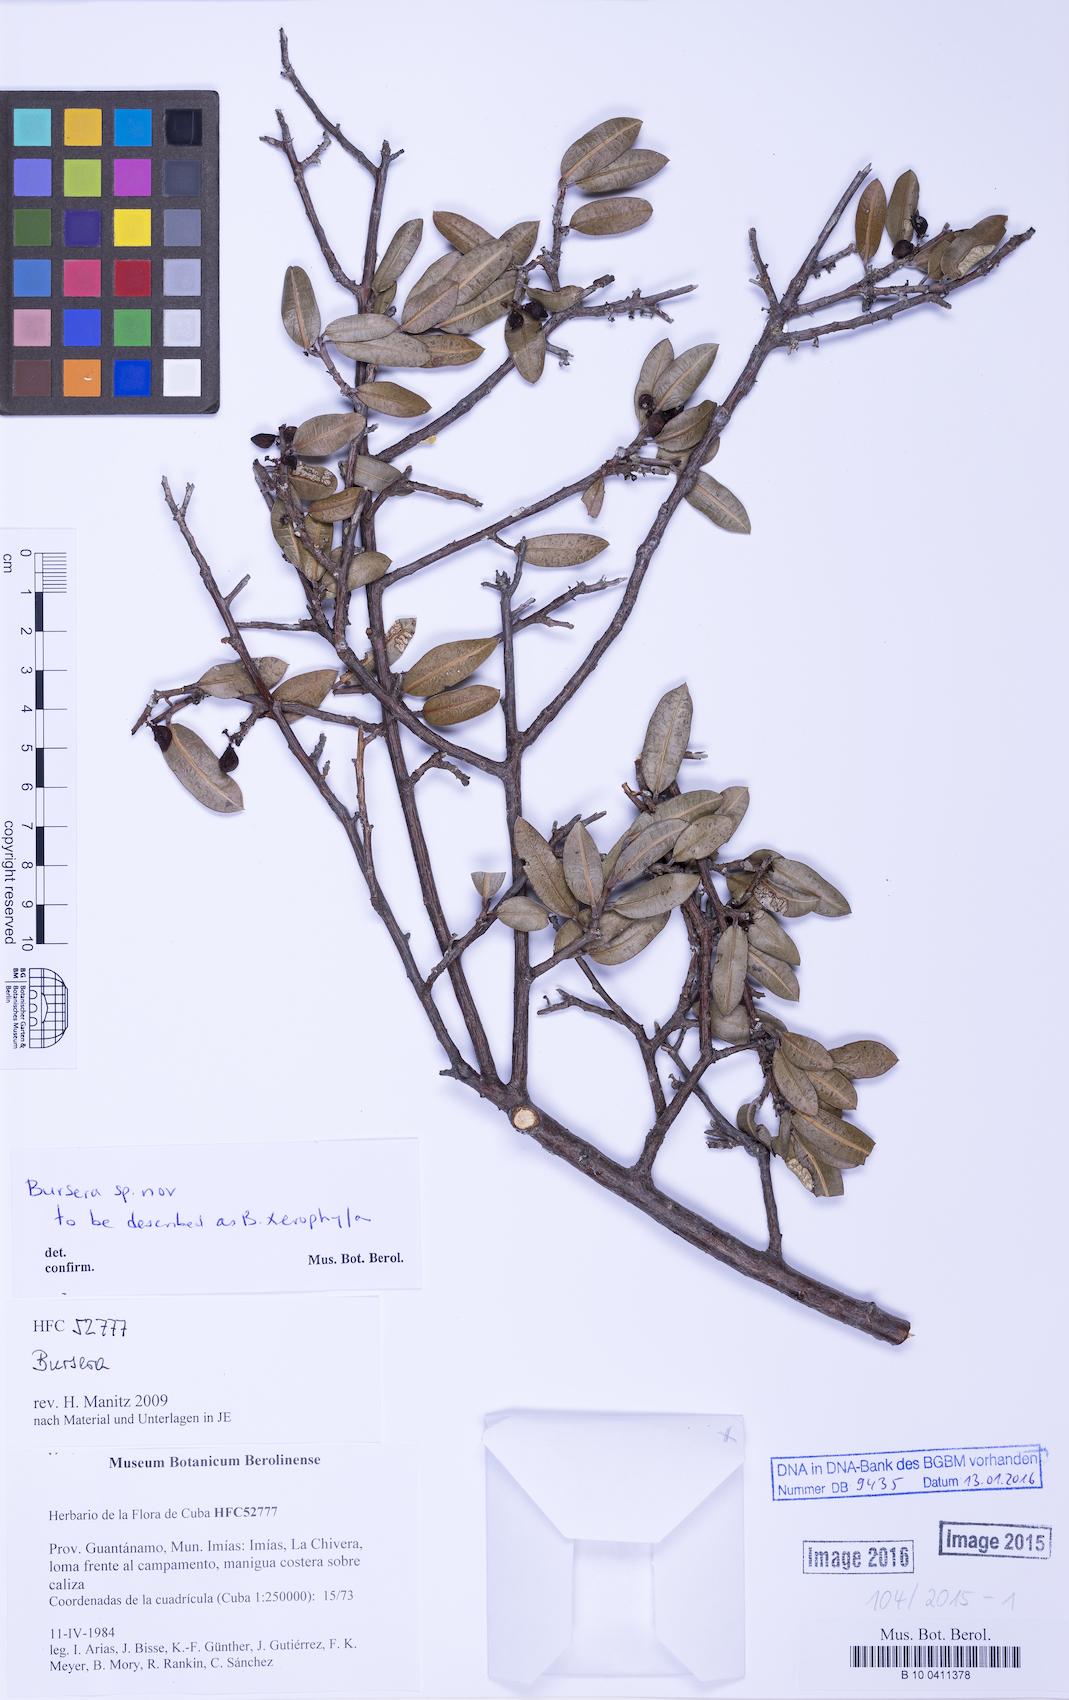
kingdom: Plantae
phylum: Tracheophyta
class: Magnoliopsida
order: Sapindales
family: Burseraceae
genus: Bursera
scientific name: Bursera
